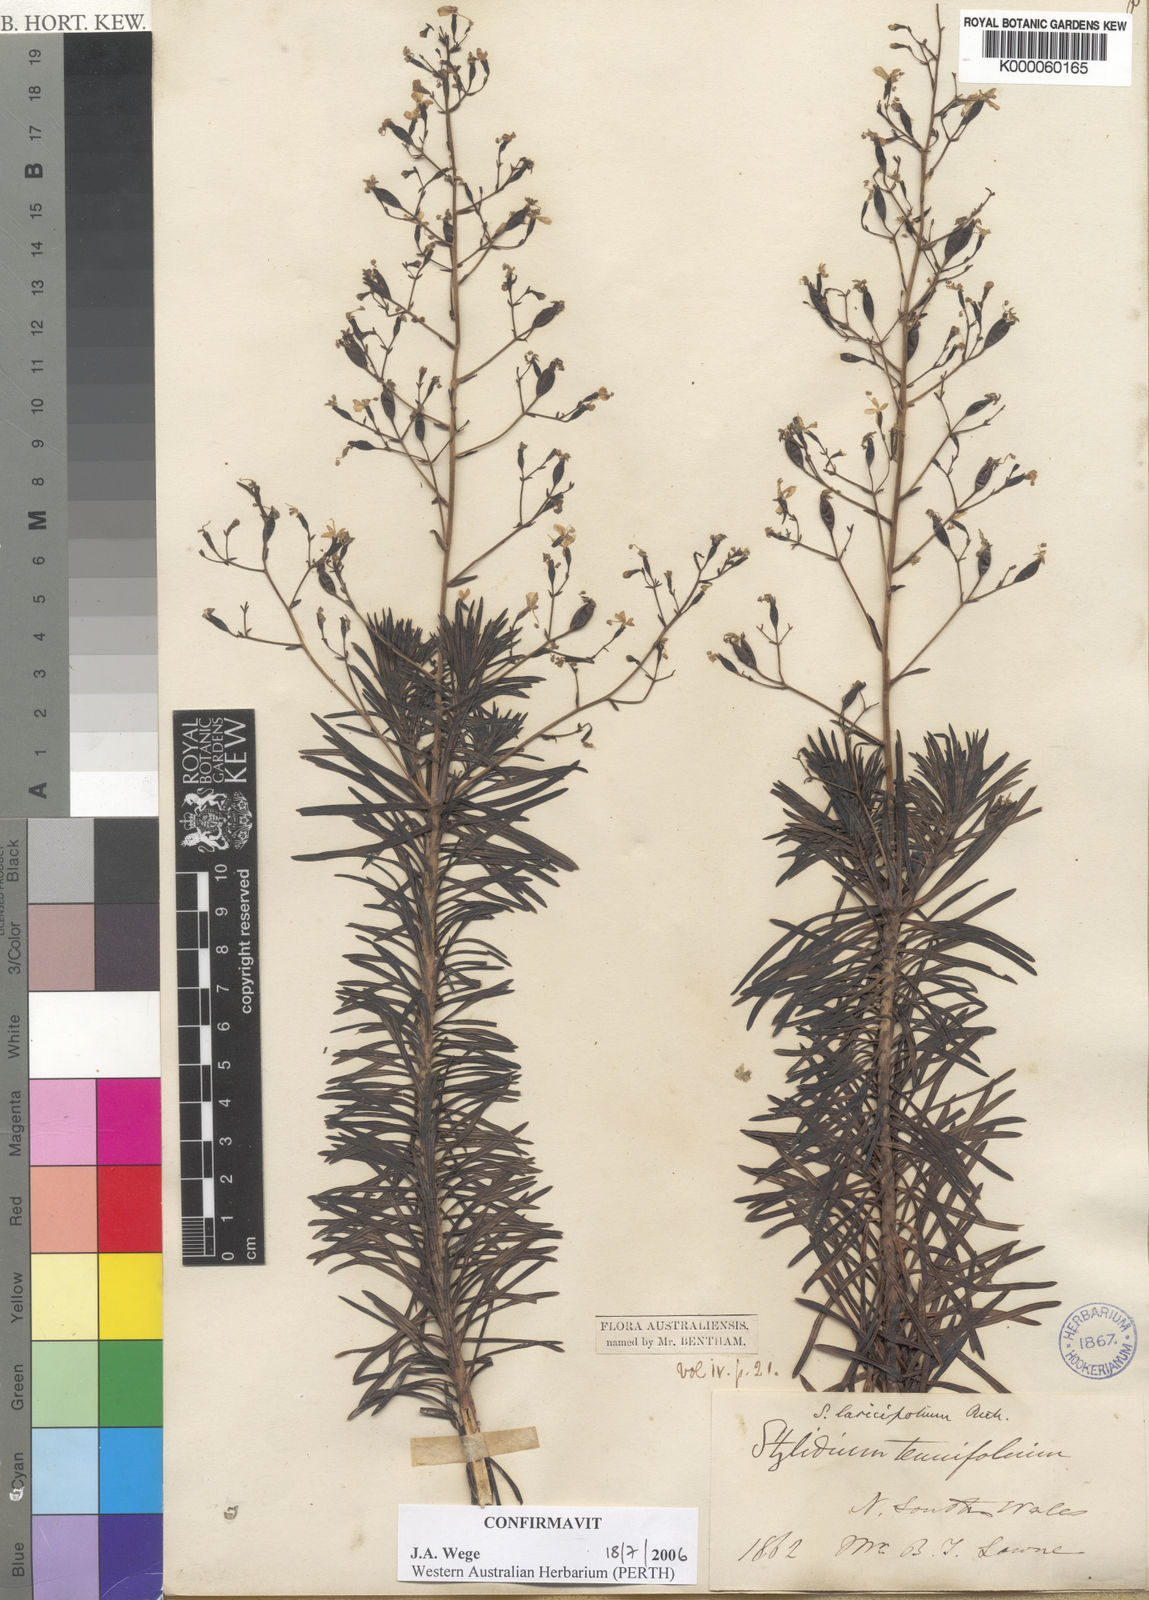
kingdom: Plantae
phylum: Tracheophyta
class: Magnoliopsida
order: Asterales
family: Stylidiaceae
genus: Stylidium
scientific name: Stylidium laricifolium
